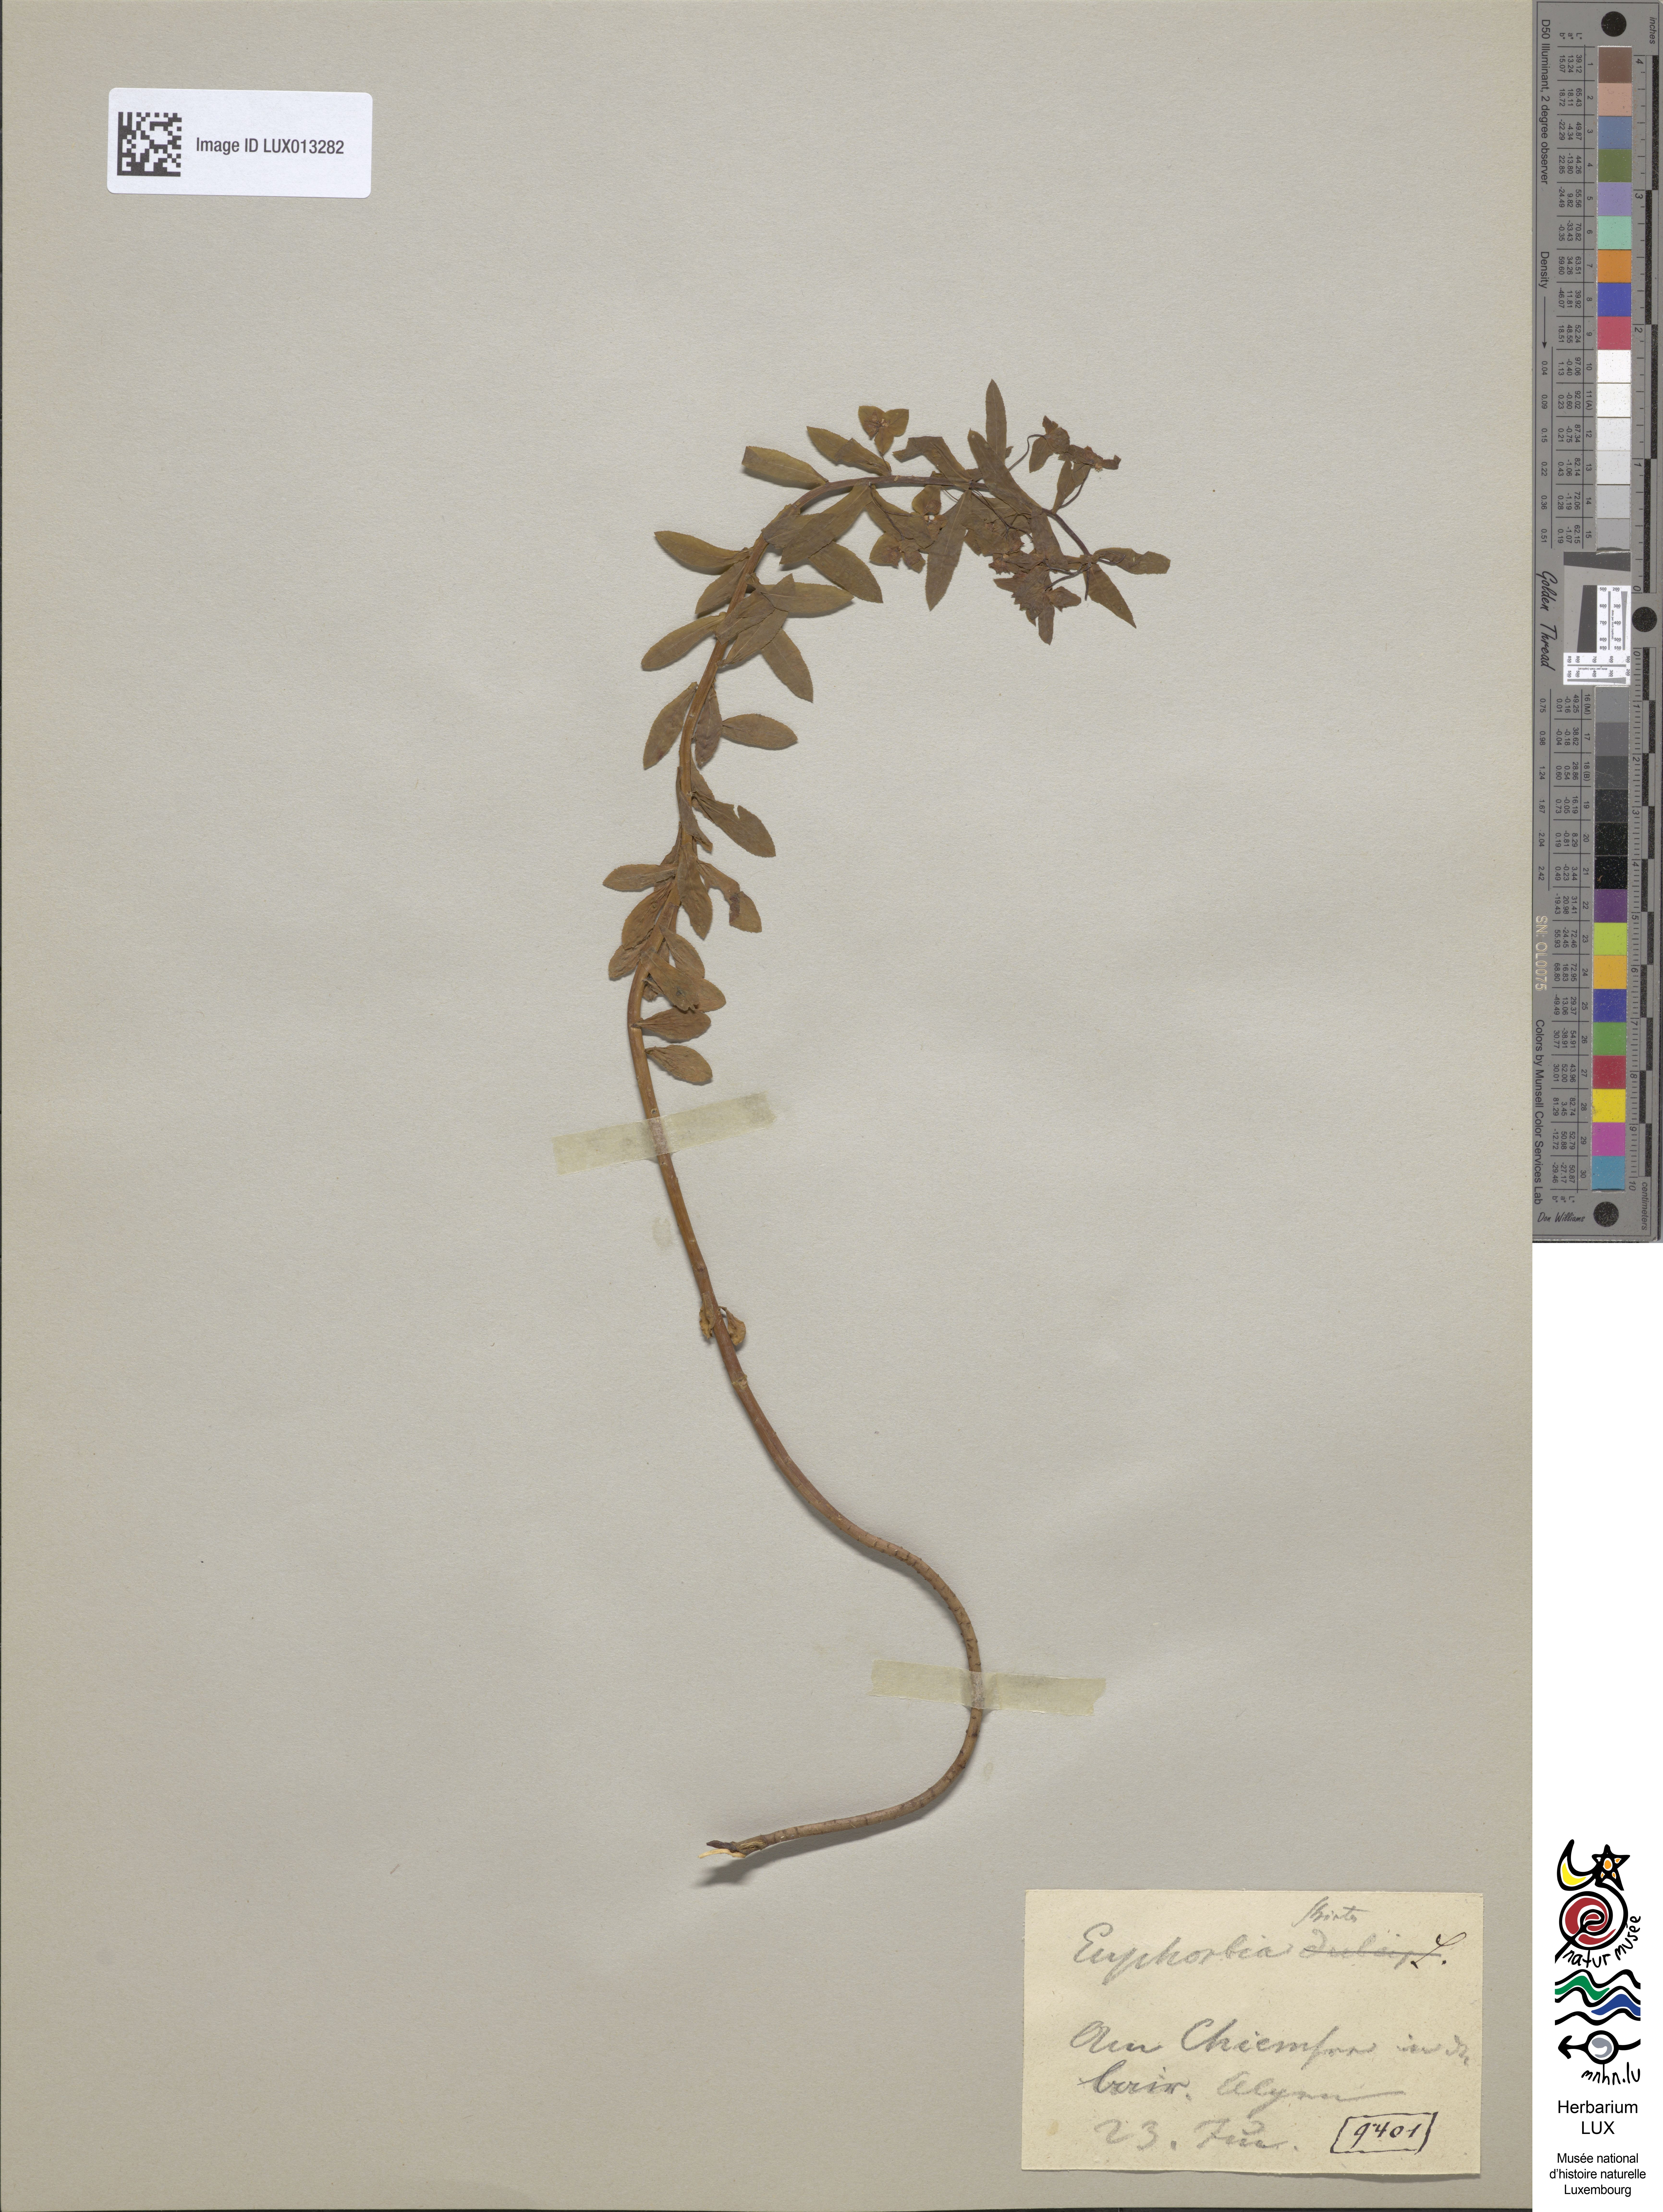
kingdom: Plantae
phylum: Tracheophyta
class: Magnoliopsida
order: Malpighiales
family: Euphorbiaceae
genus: Euphorbia
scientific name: Euphorbia stricta
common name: Upright spurge
